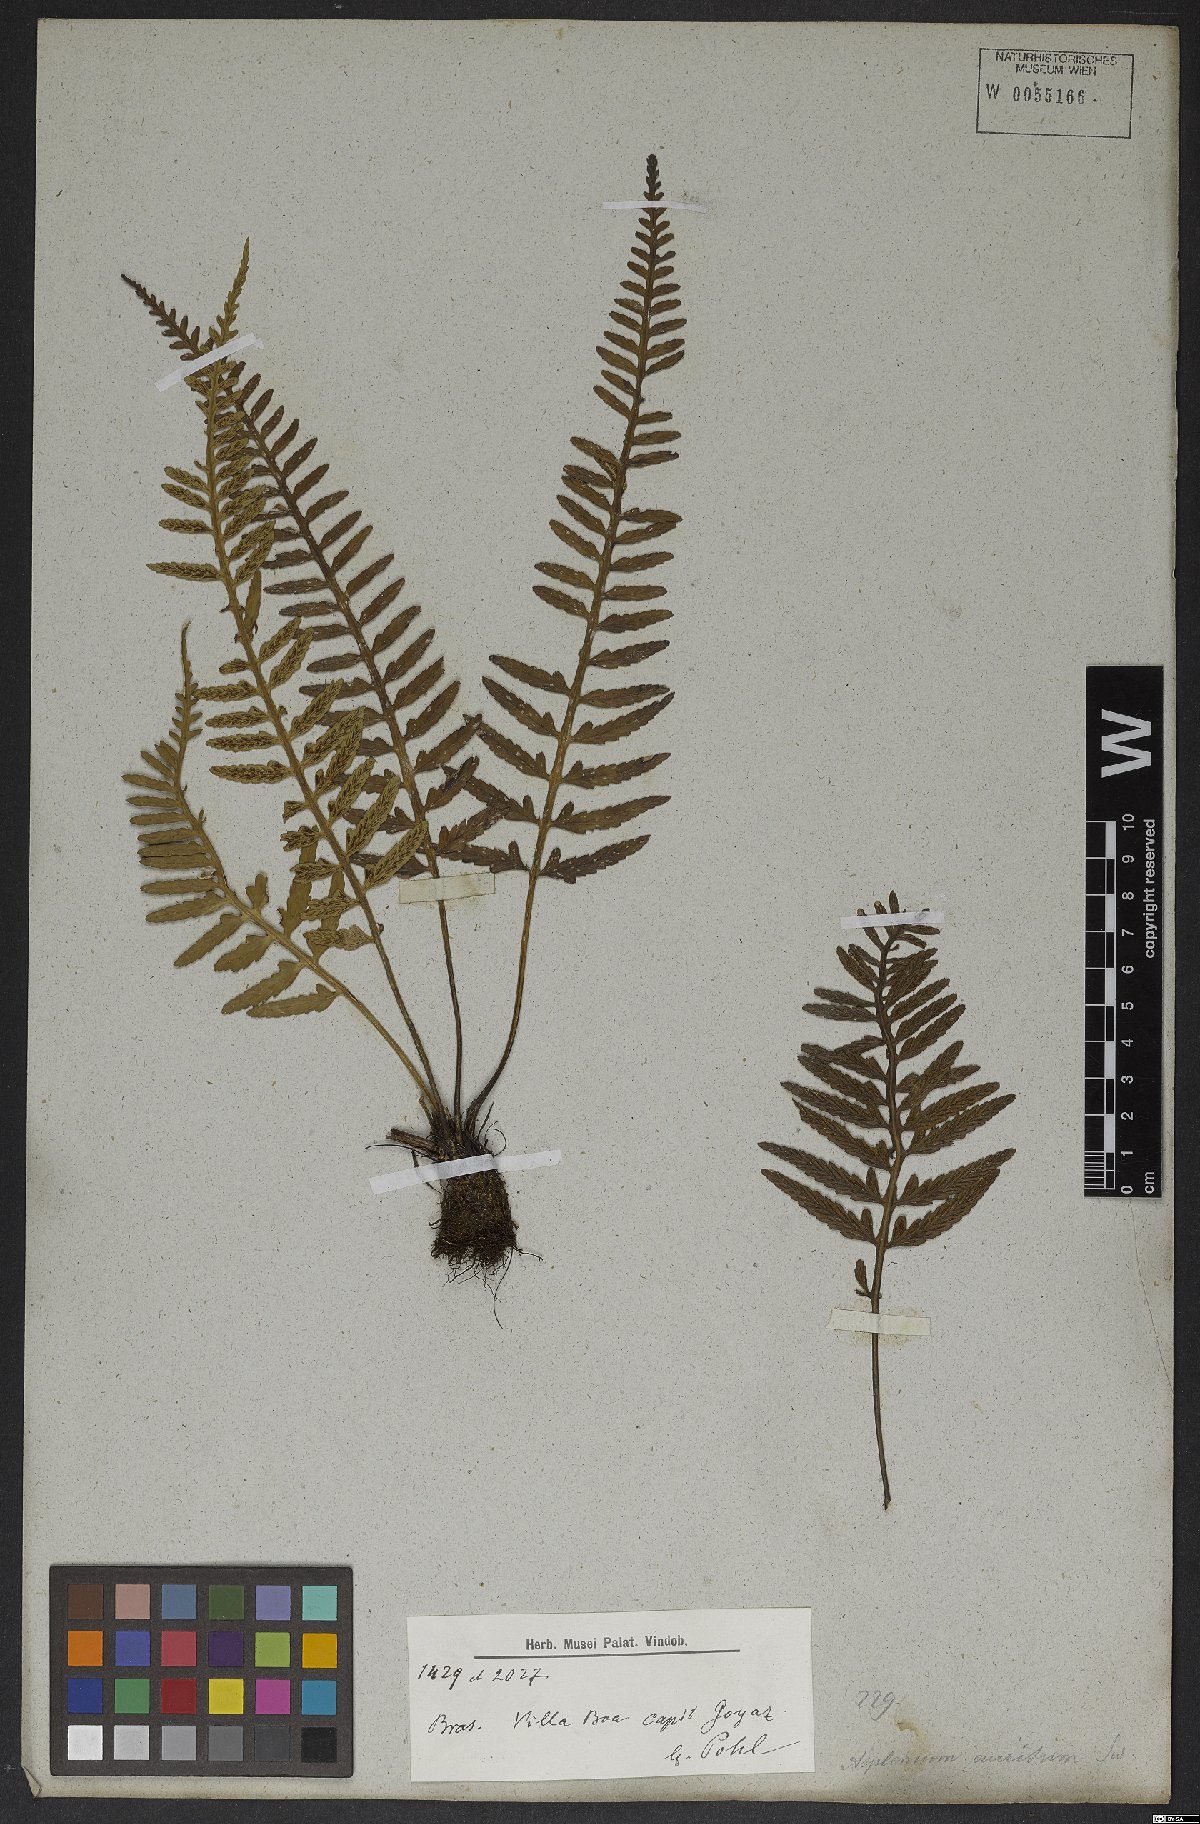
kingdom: Plantae
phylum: Tracheophyta
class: Polypodiopsida
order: Polypodiales
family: Aspleniaceae
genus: Asplenium
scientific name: Asplenium sulcatum
